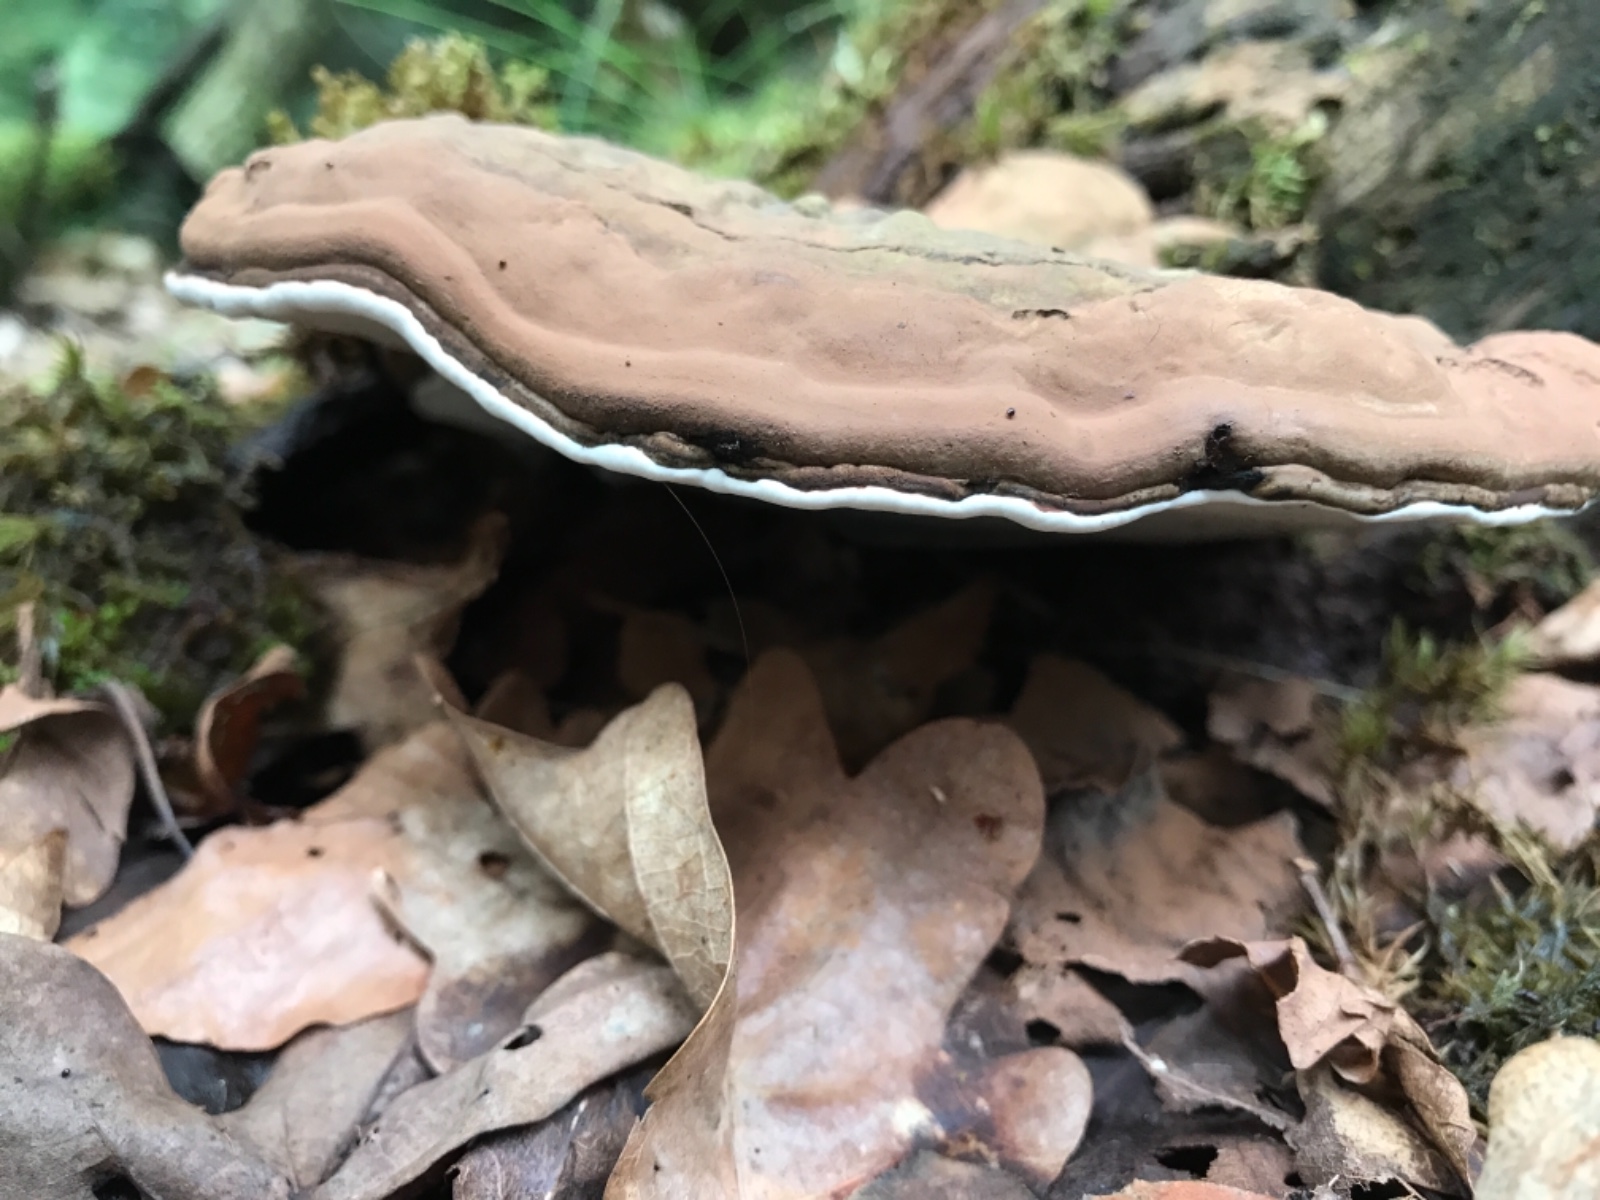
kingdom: Fungi
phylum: Basidiomycota
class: Agaricomycetes
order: Polyporales
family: Polyporaceae
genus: Ganoderma
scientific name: Ganoderma applanatum
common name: flad lakporesvamp
